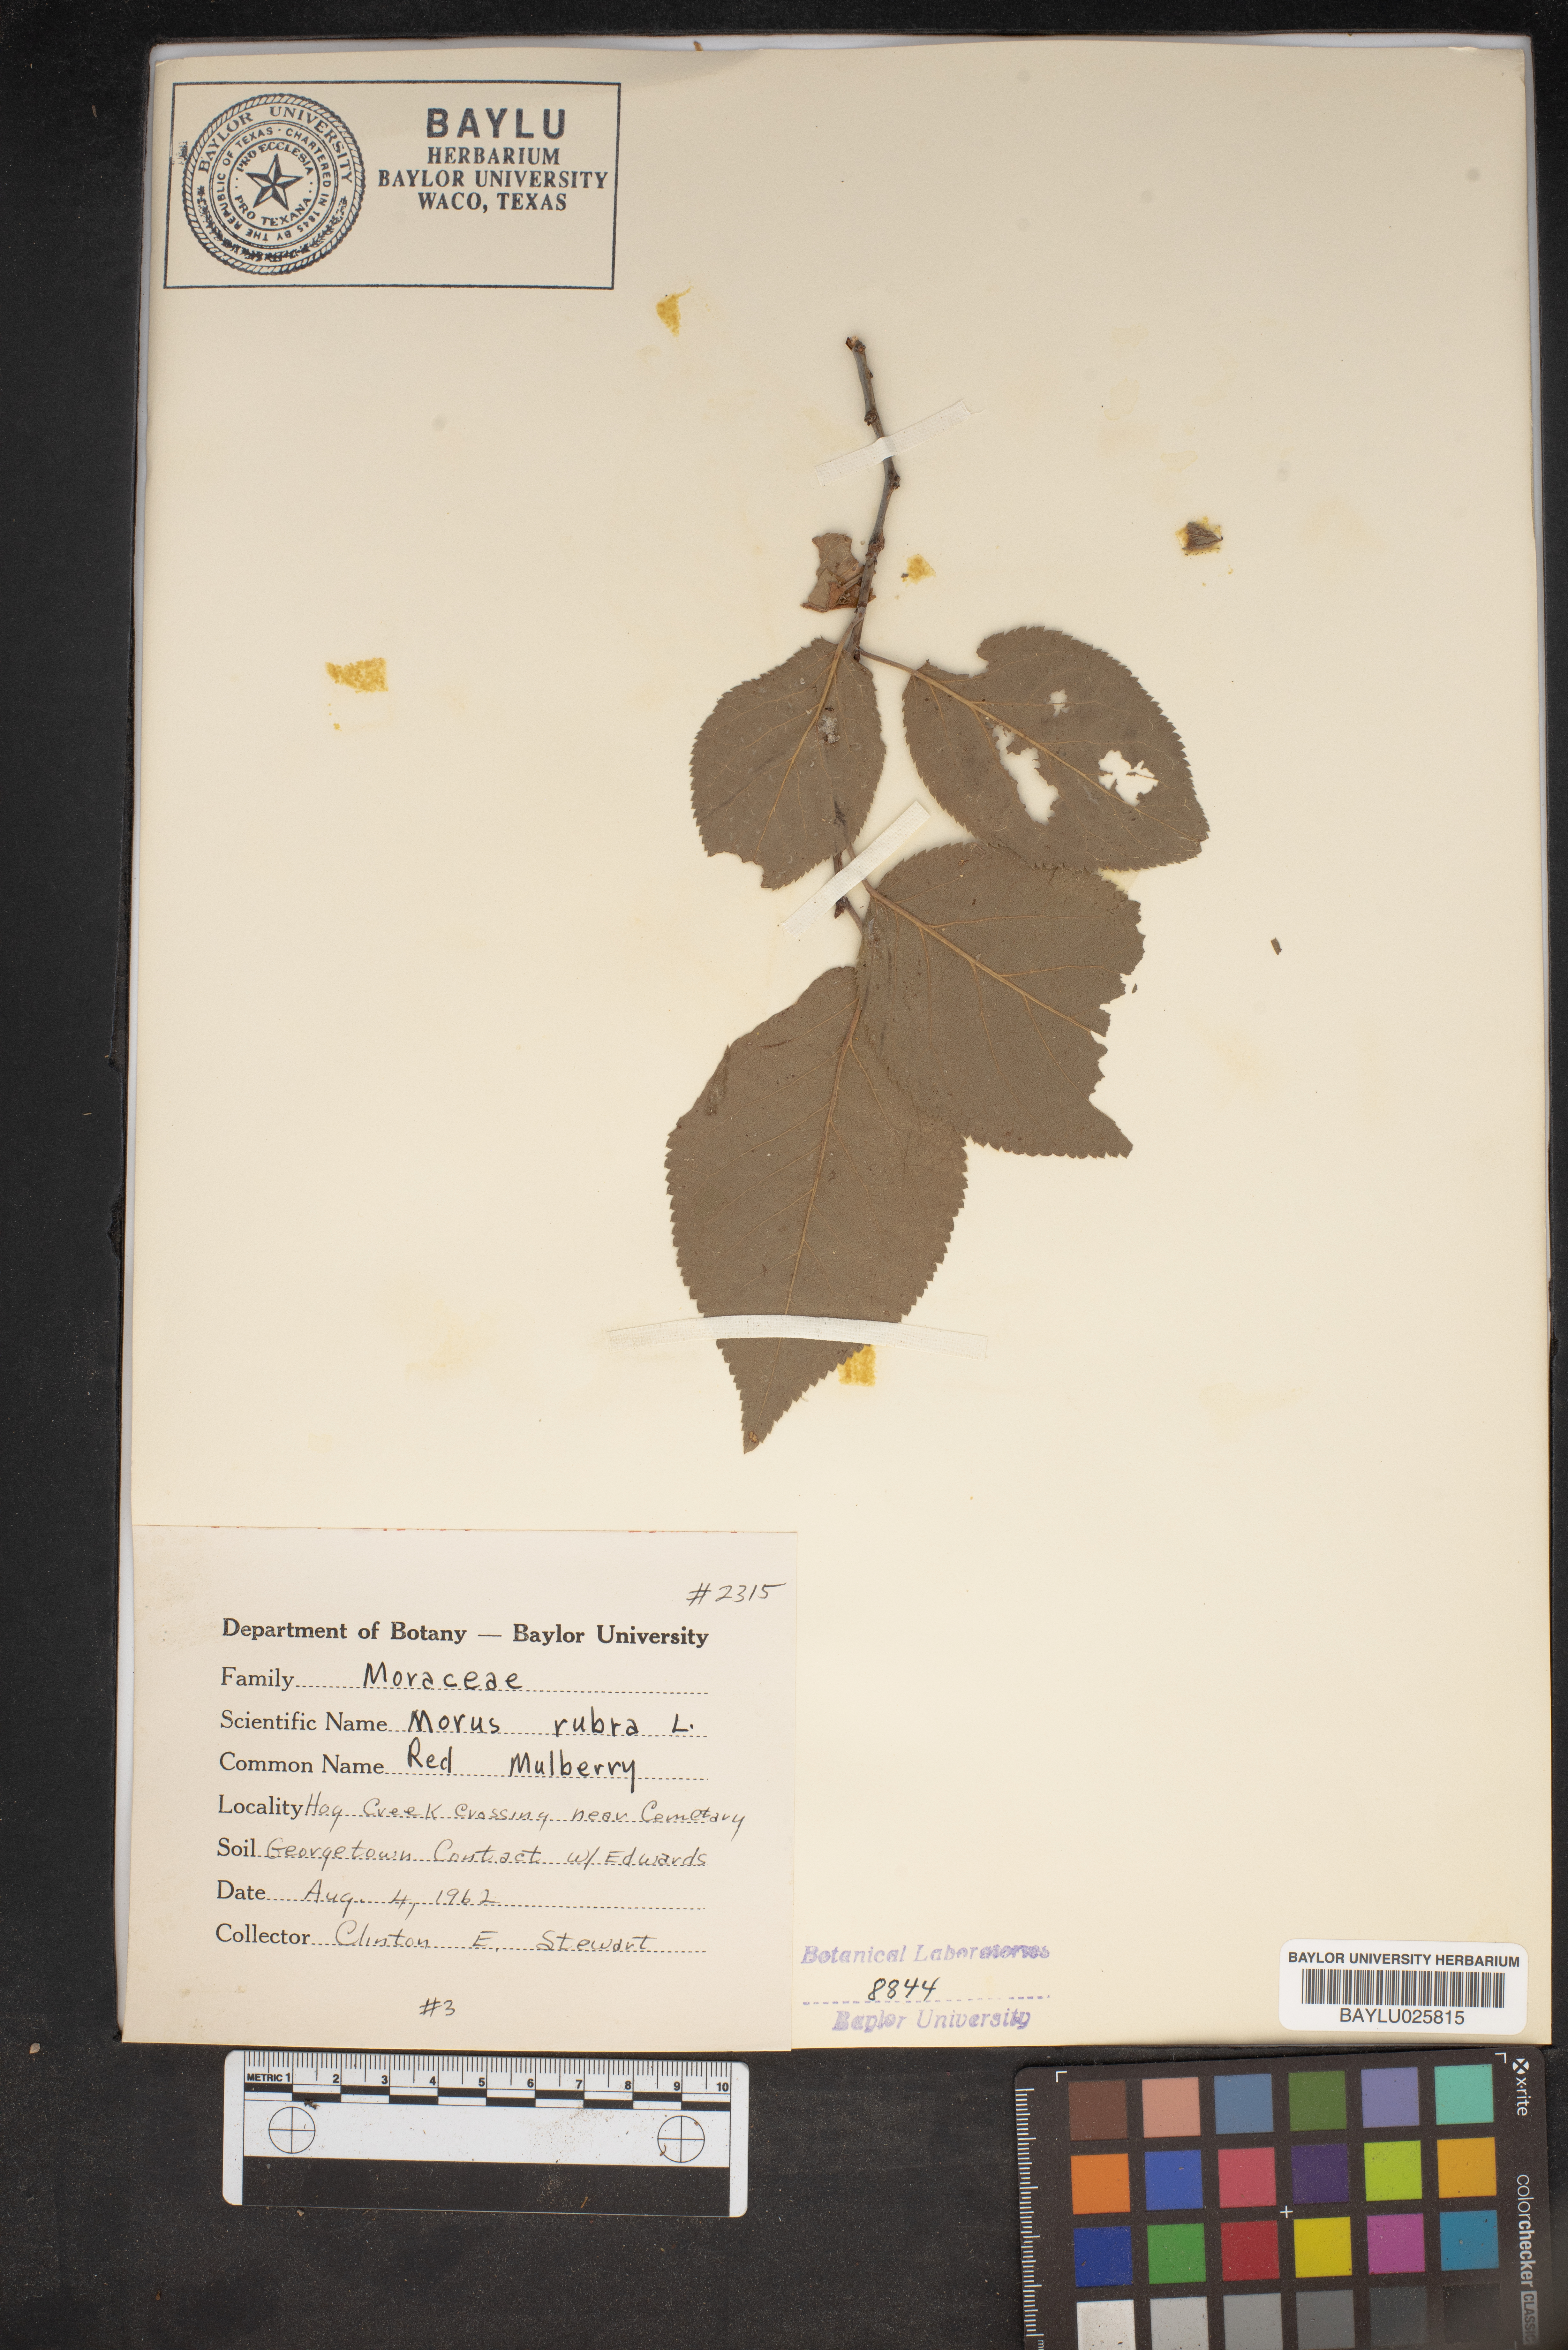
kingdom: Plantae
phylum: Tracheophyta
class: Magnoliopsida
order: Rosales
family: Moraceae
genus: Morus
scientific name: Morus rubra
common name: Red mulberry
